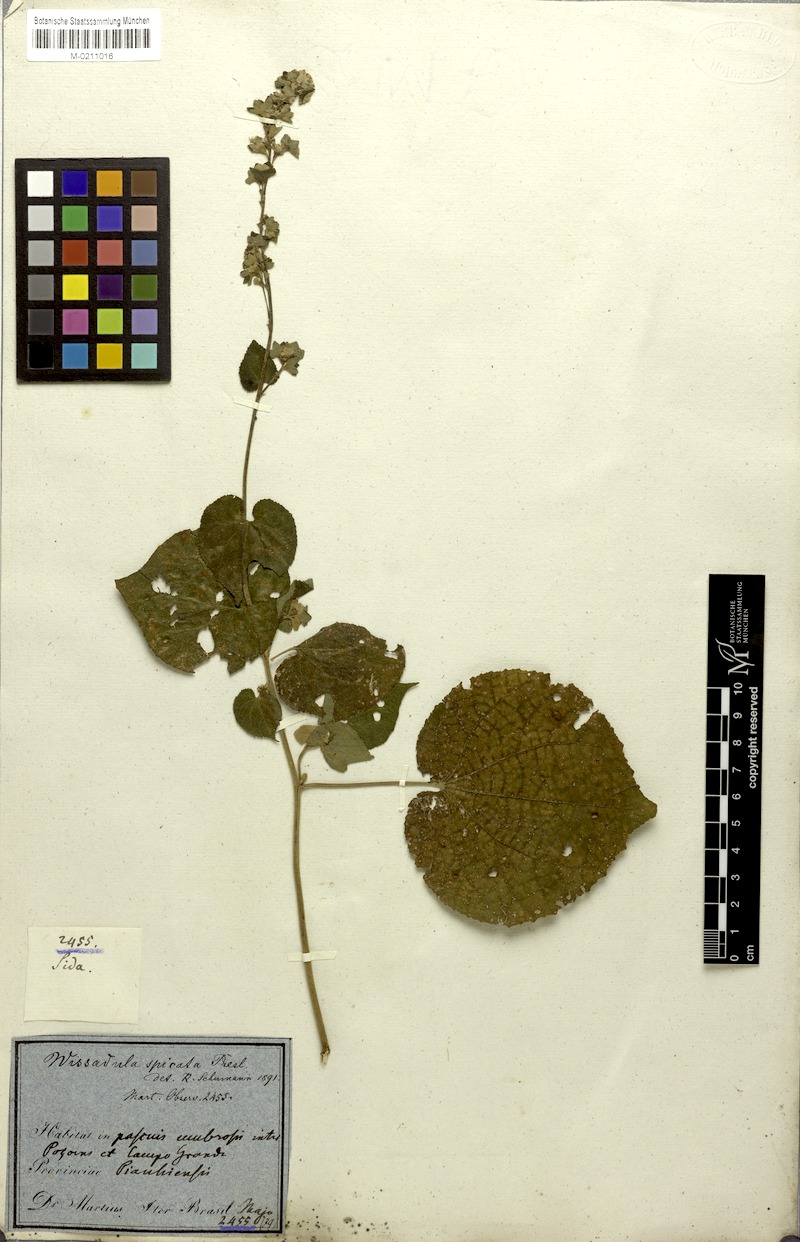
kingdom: Plantae
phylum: Tracheophyta
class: Magnoliopsida
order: Malvales
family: Malvaceae
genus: Allobriquetia
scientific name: Allobriquetia spicata
